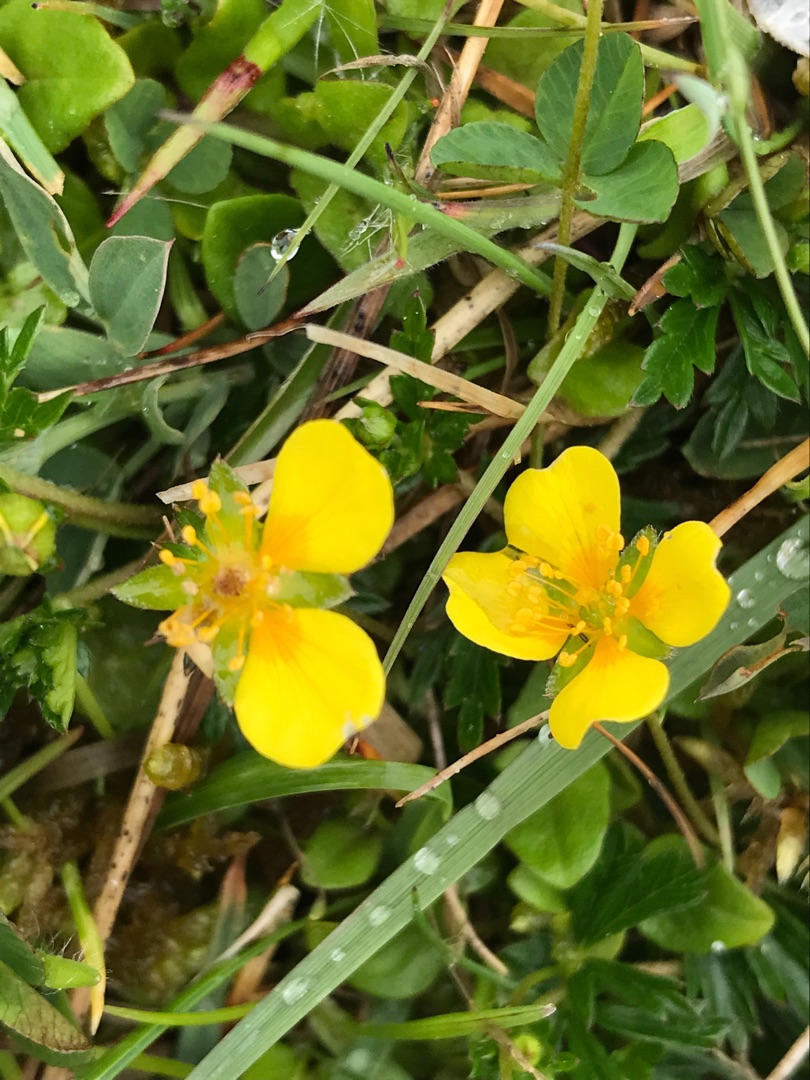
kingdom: Plantae
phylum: Tracheophyta
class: Magnoliopsida
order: Rosales
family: Rosaceae
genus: Potentilla
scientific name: Potentilla erecta
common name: Tormentil
